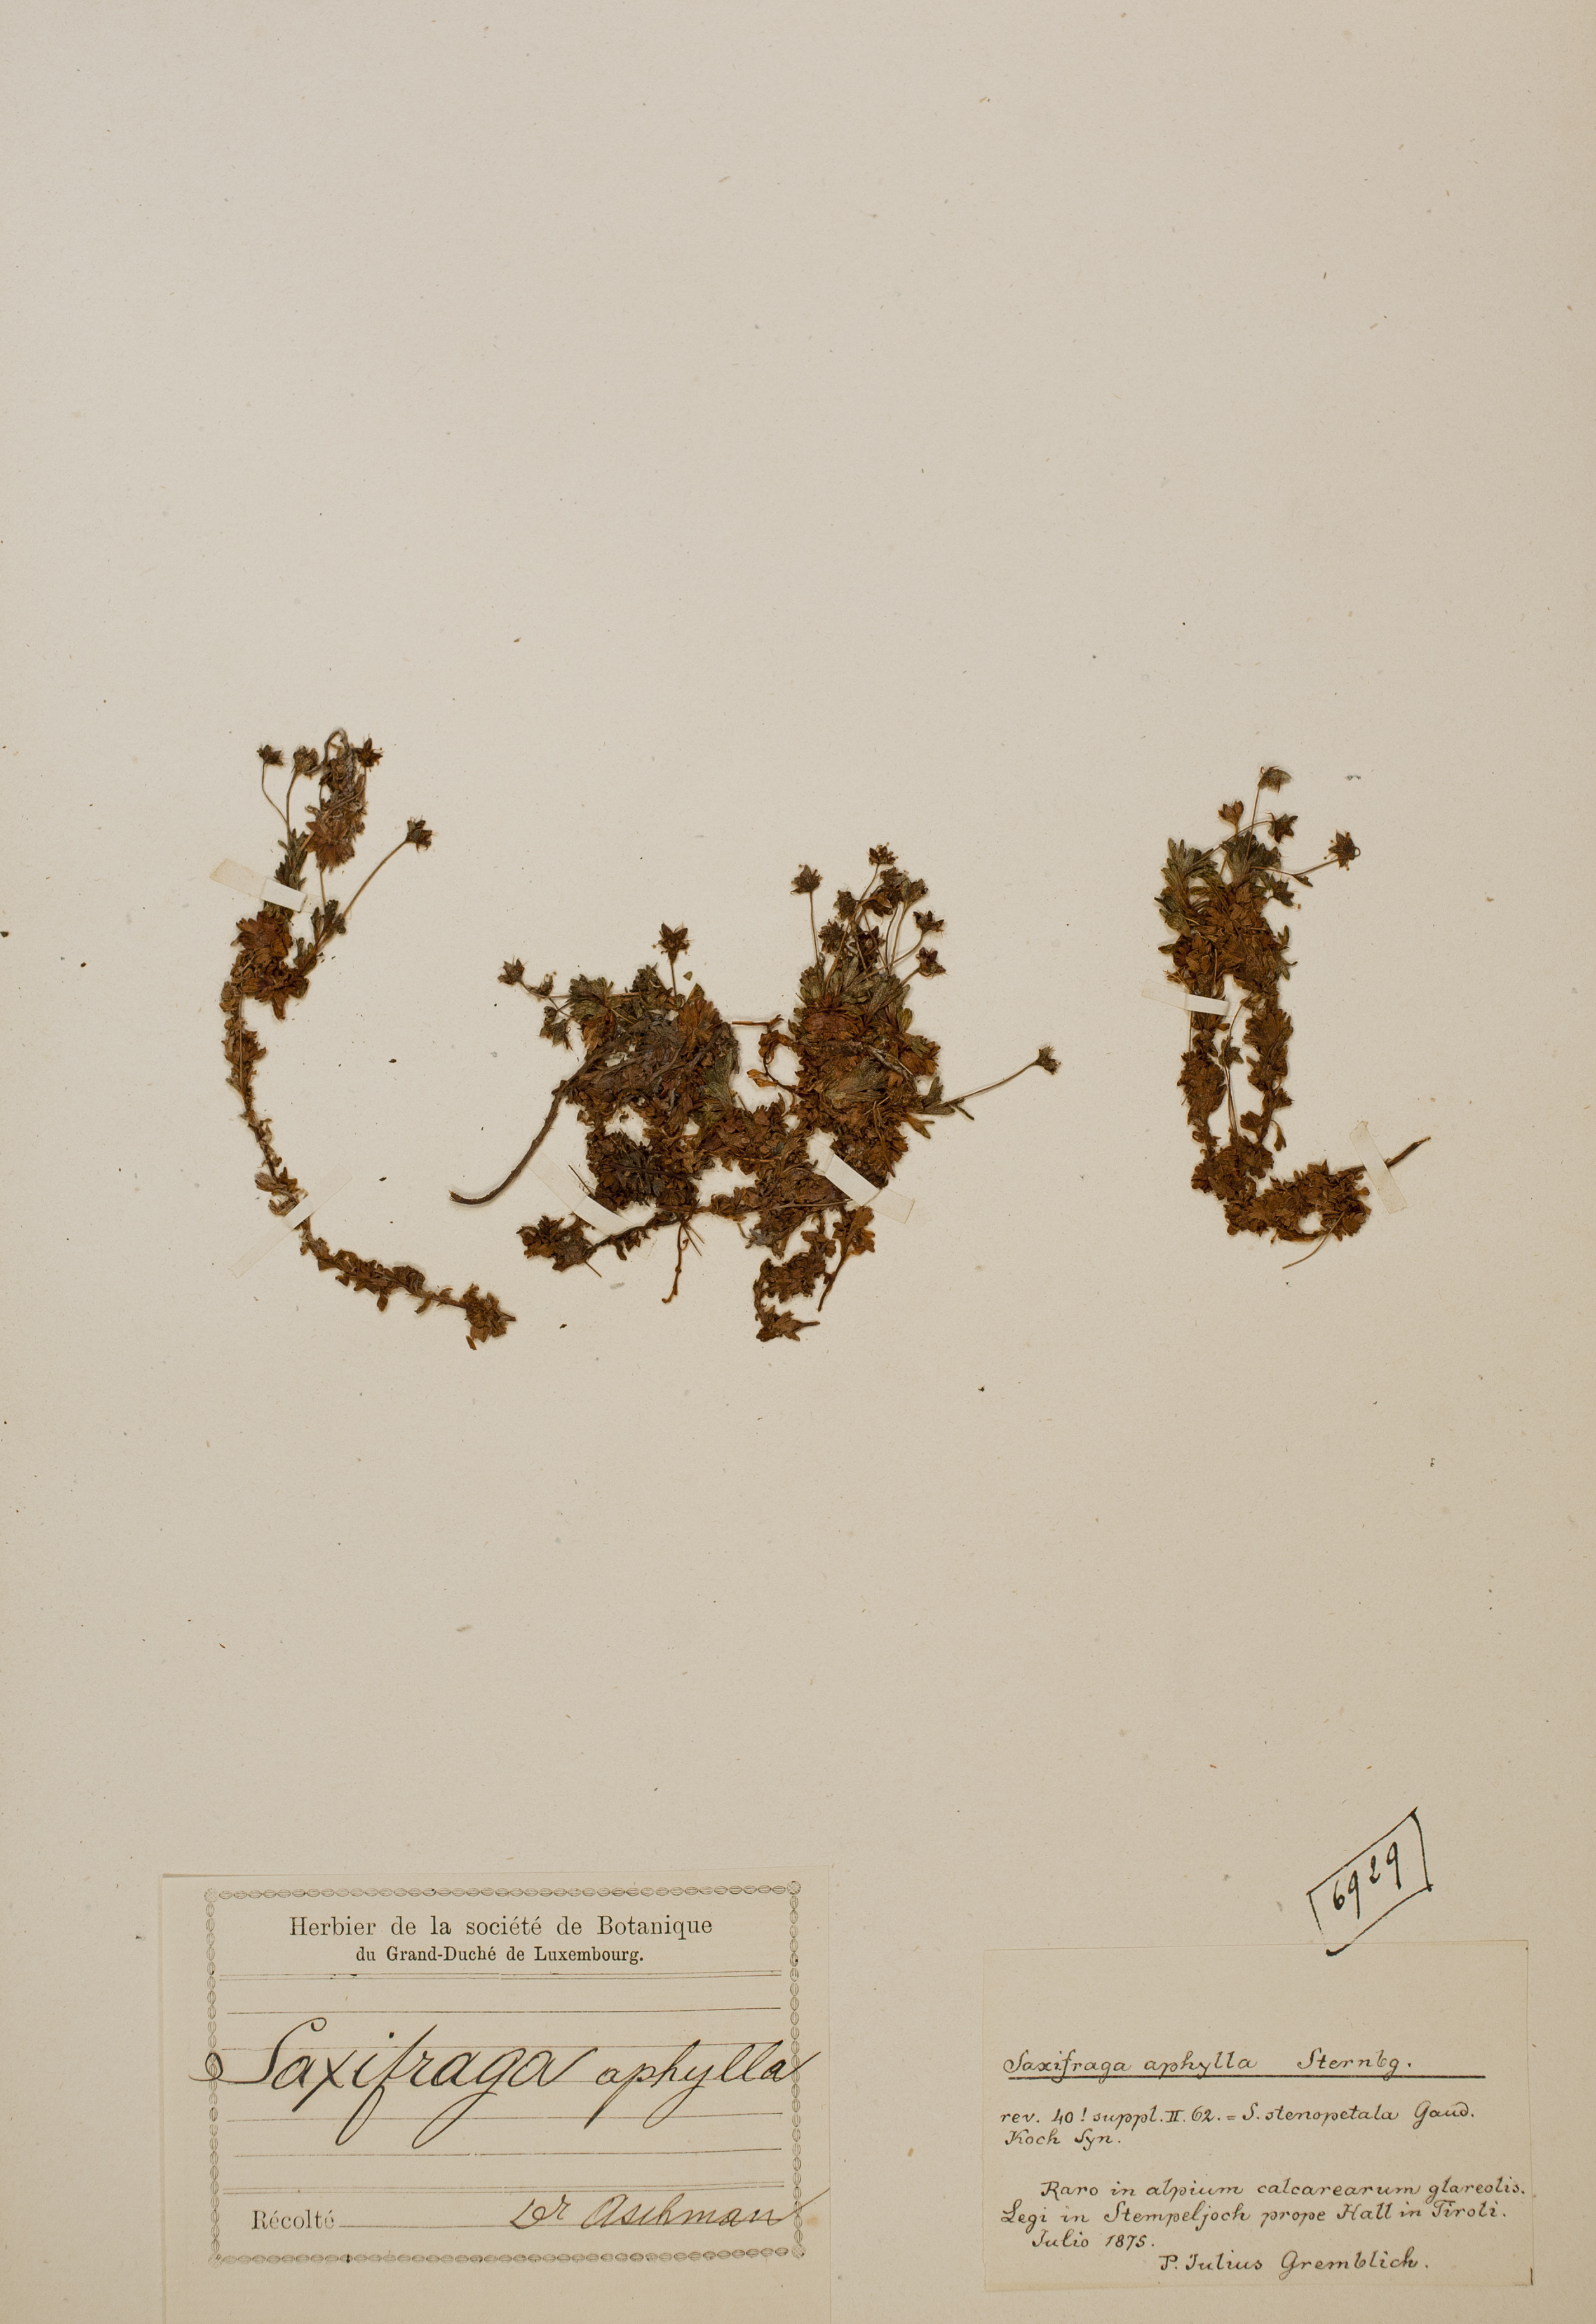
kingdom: Plantae
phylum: Tracheophyta
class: Magnoliopsida
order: Saxifragales
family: Saxifragaceae
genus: Saxifraga
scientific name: Saxifraga aphylla
